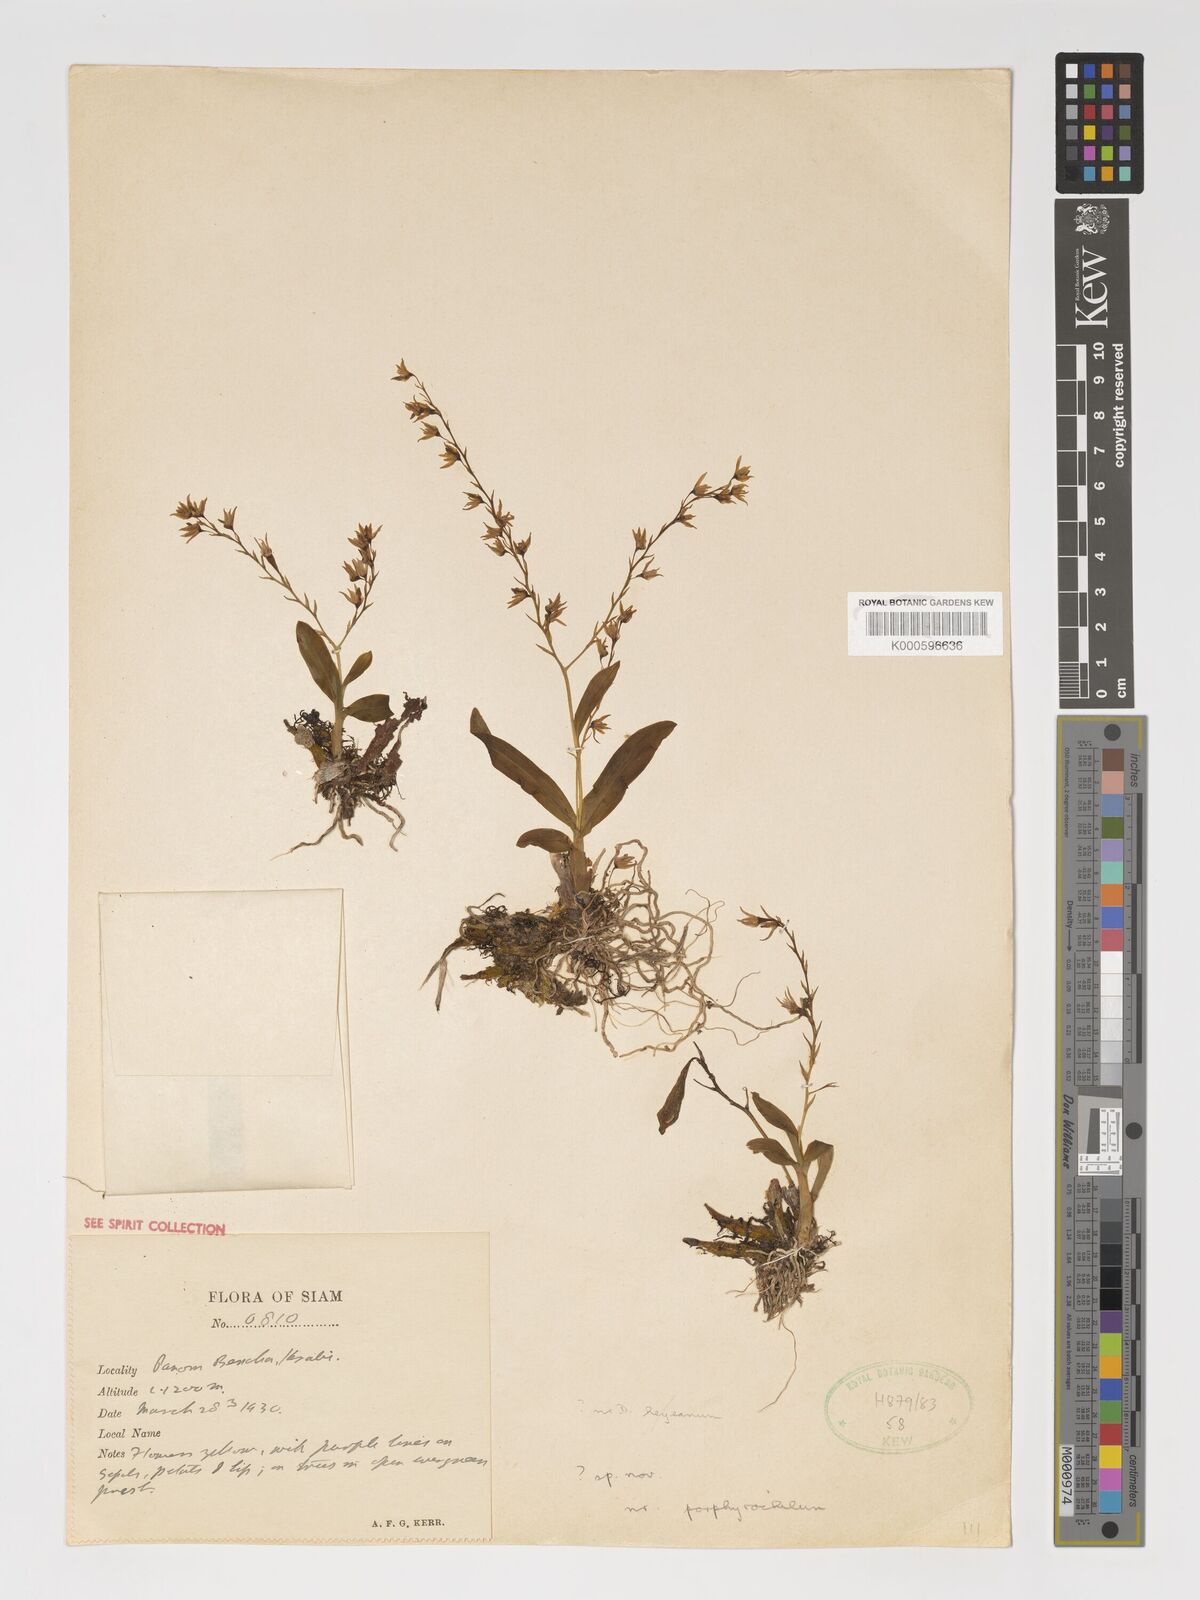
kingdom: Plantae
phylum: Tracheophyta
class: Liliopsida
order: Asparagales
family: Orchidaceae
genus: Dendrobium
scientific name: Dendrobium porphyrochilum
